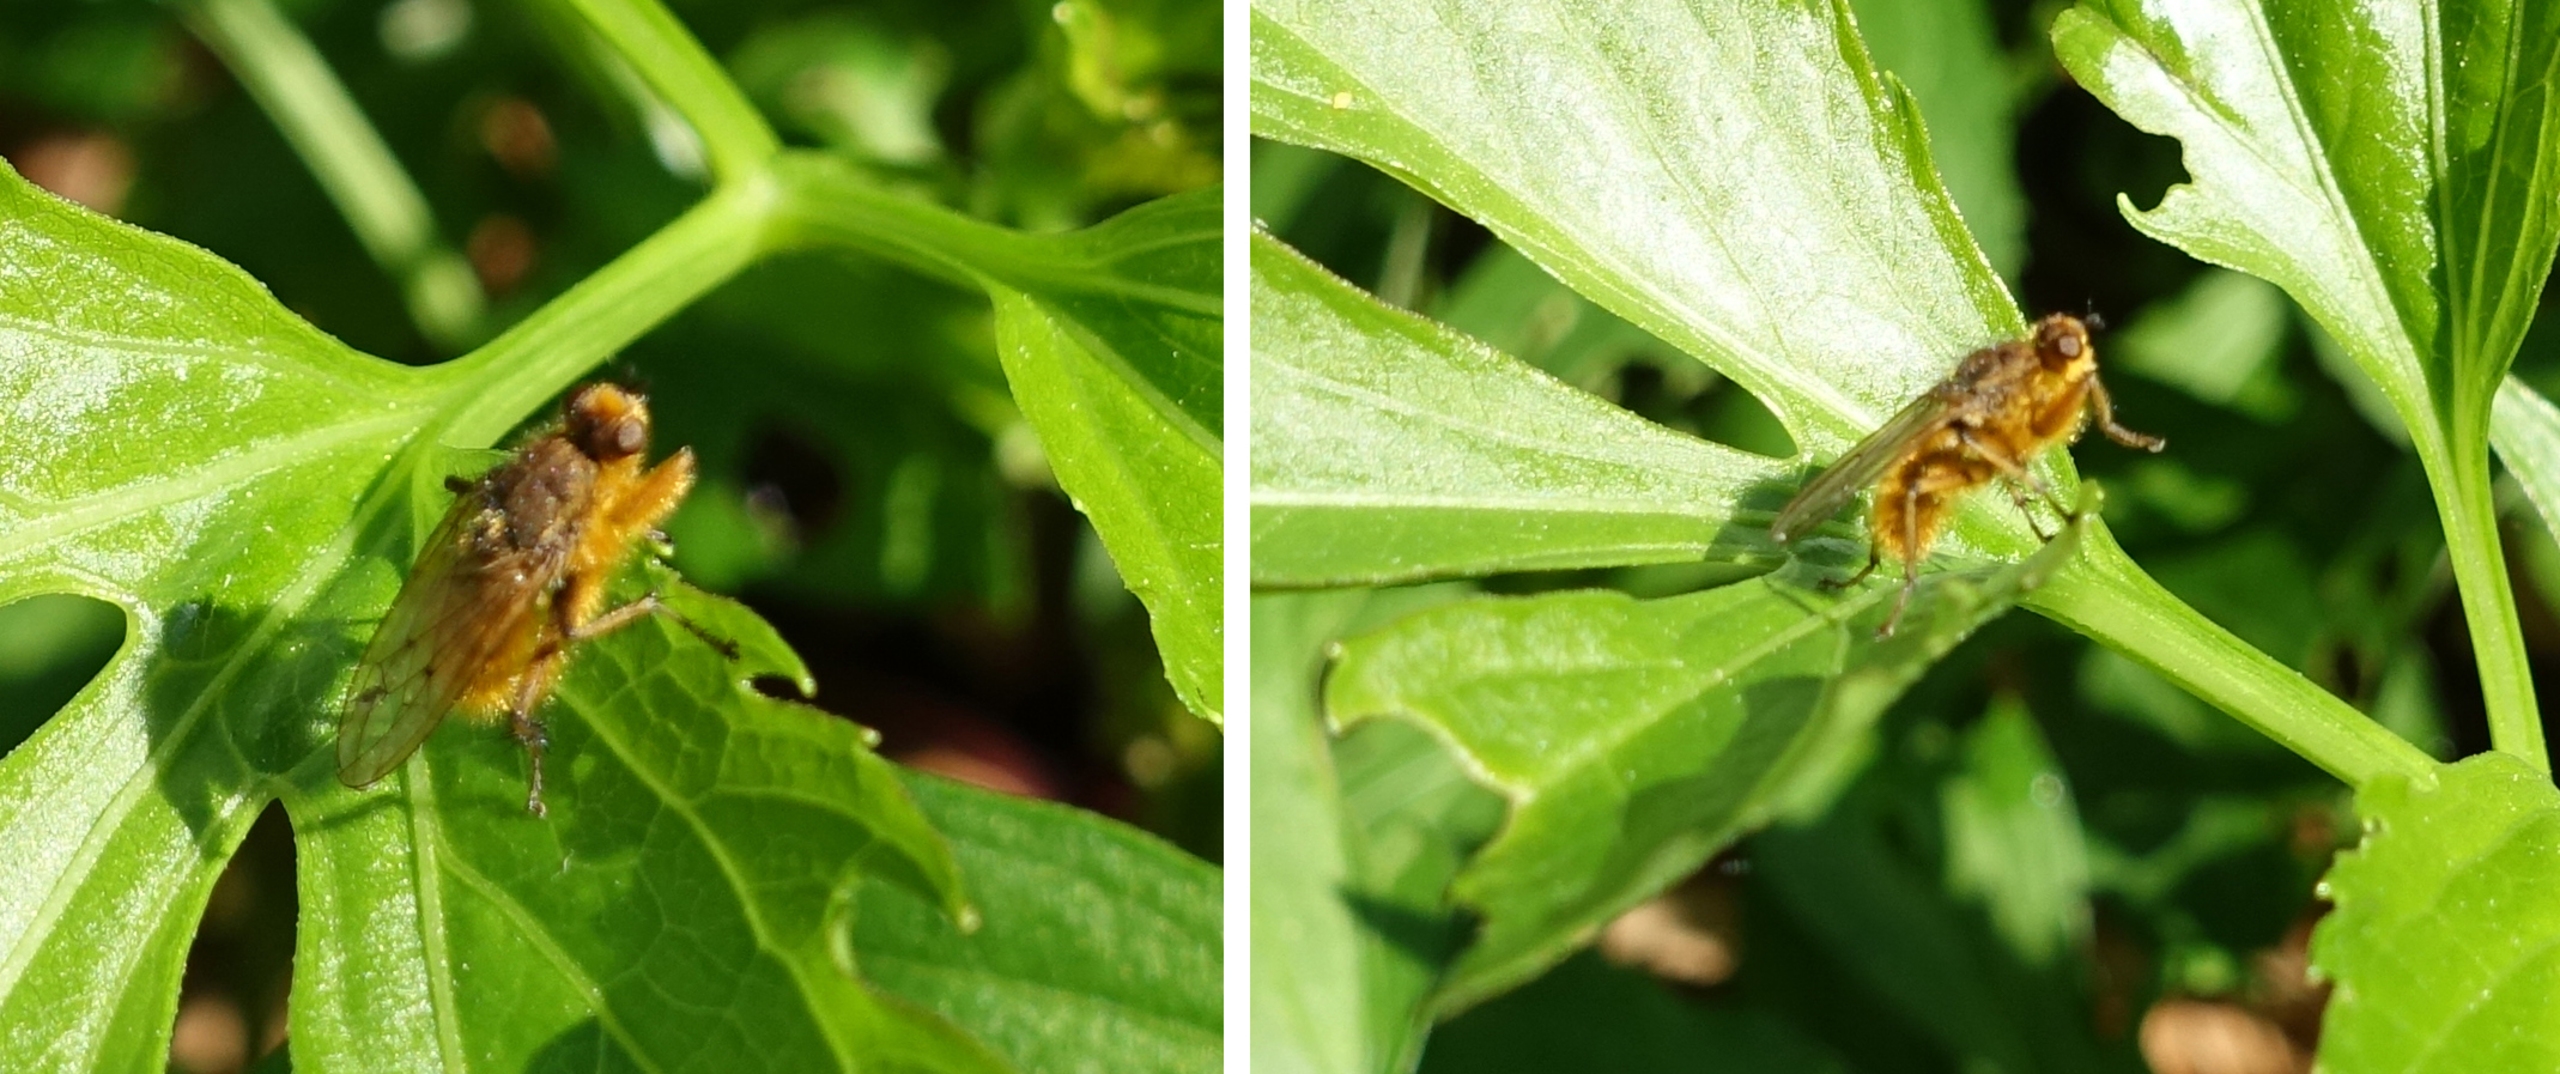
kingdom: Animalia
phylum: Arthropoda
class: Insecta
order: Diptera
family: Scathophagidae
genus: Scathophaga
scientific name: Scathophaga stercoraria
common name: Almindelig gødningsflue
